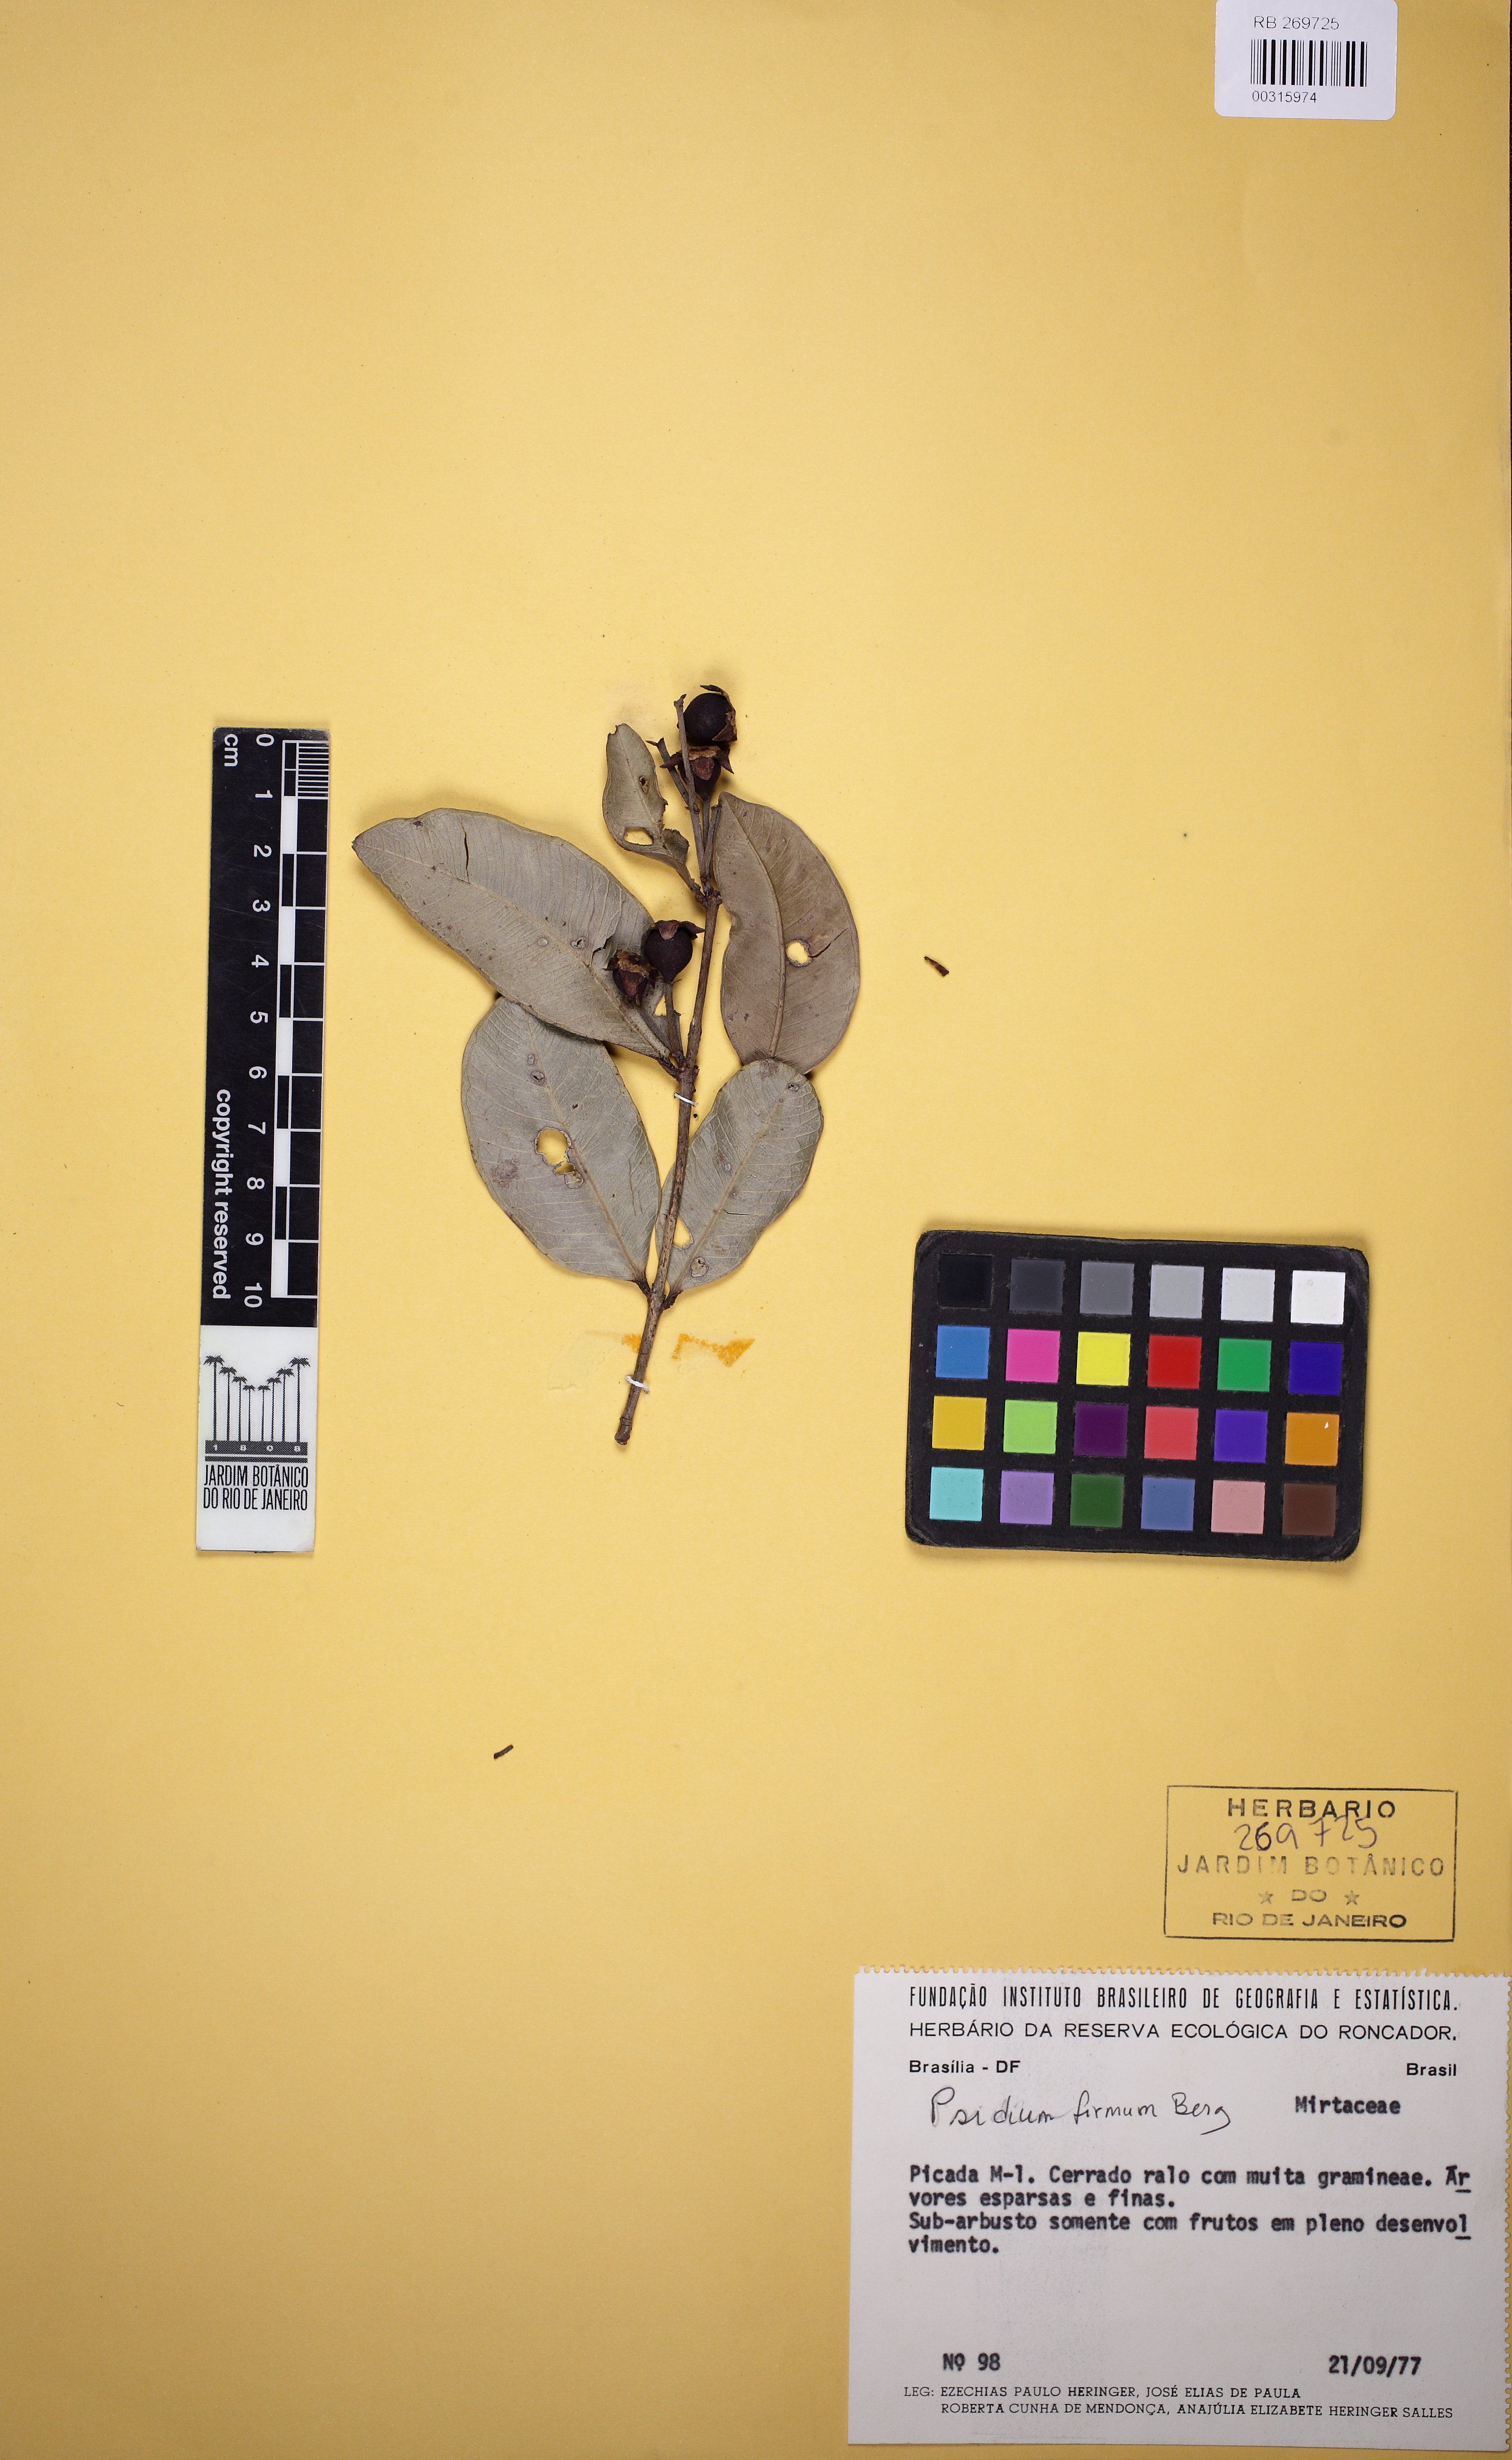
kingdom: Plantae
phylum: Tracheophyta
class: Magnoliopsida
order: Myrtales
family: Myrtaceae
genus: Psidium
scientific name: Psidium firmum
